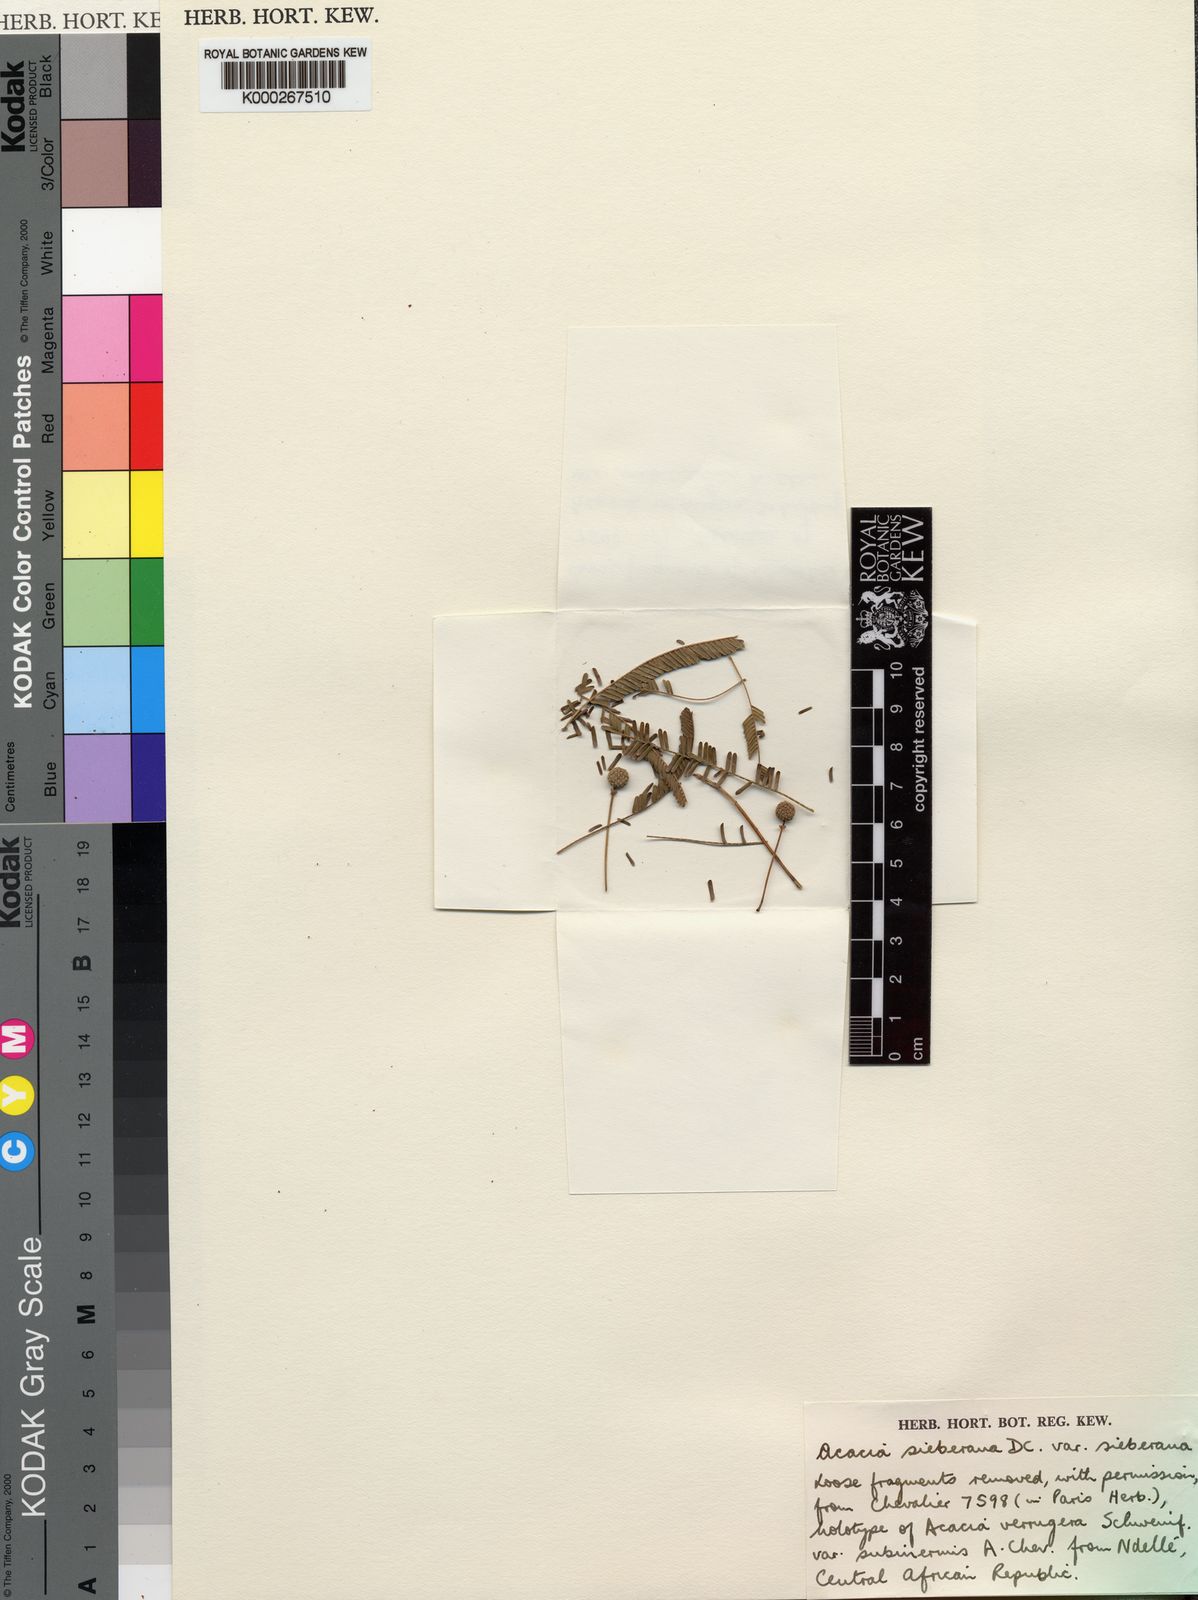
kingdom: Plantae
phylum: Tracheophyta
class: Magnoliopsida
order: Fabales
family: Fabaceae
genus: Vachellia
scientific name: Vachellia sieberiana
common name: Flat-topped thorn
